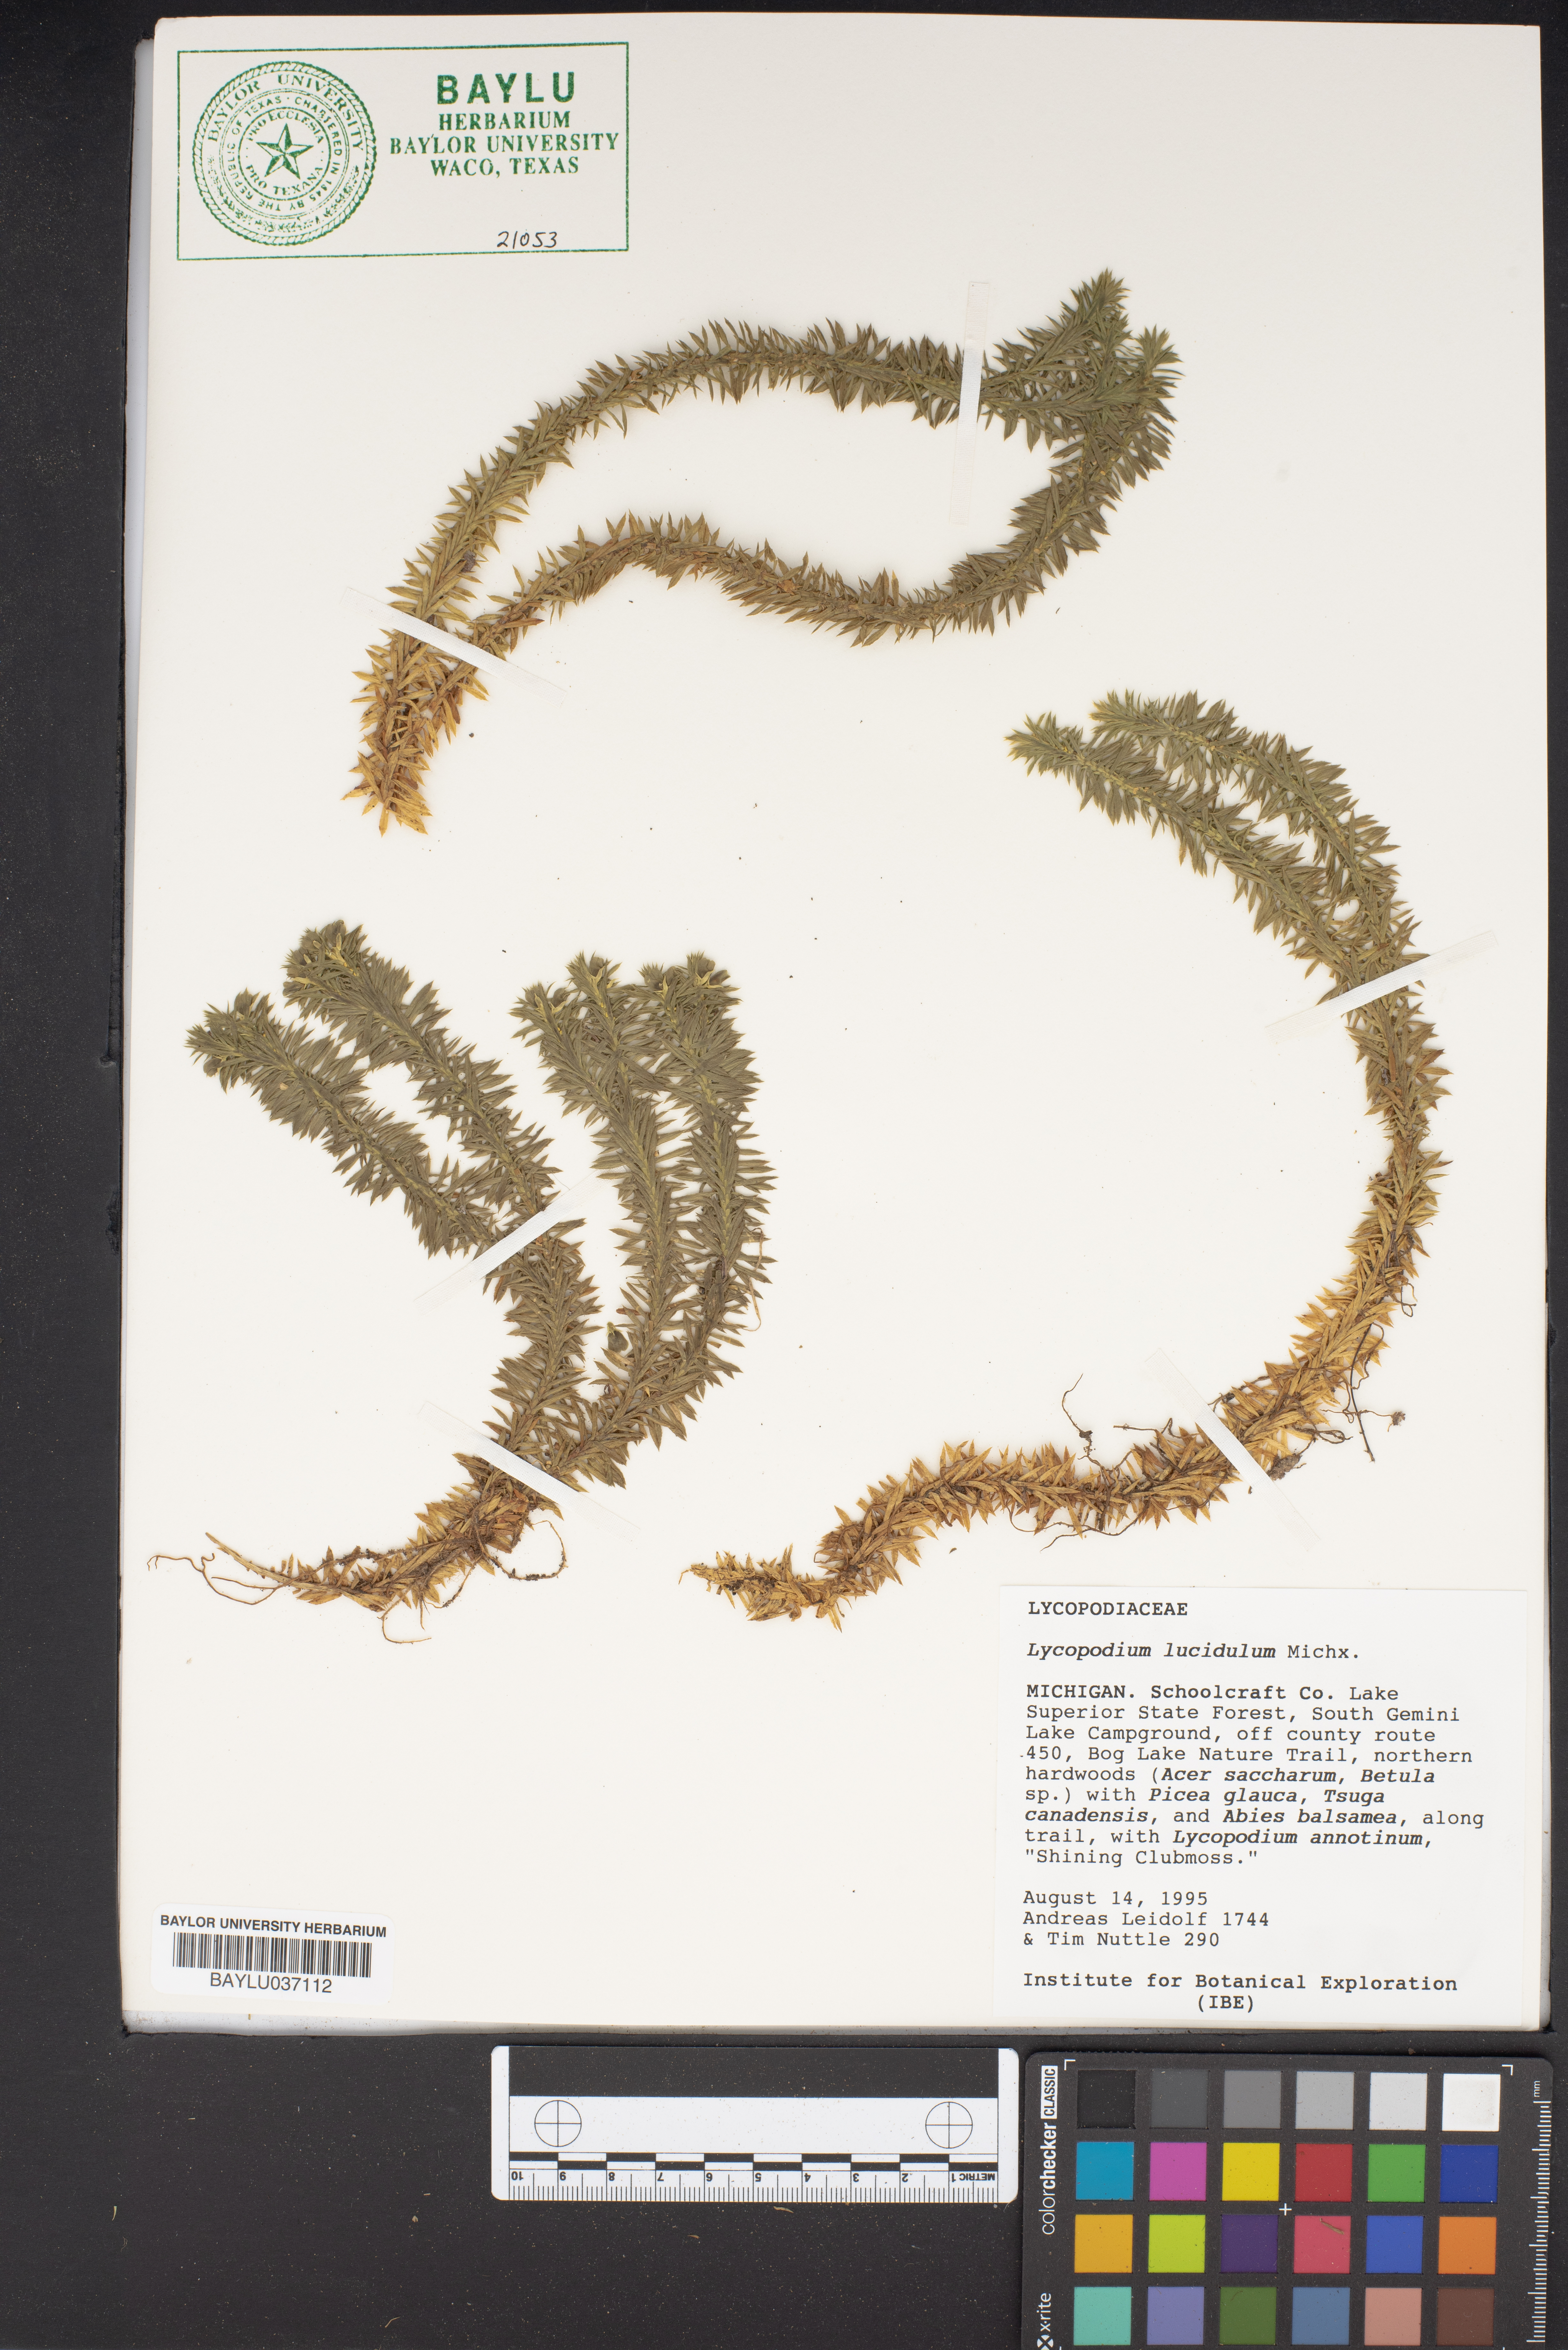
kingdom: Plantae
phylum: Tracheophyta
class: Lycopodiopsida
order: Lycopodiales
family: Lycopodiaceae
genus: Huperzia
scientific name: Huperzia lucidula
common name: Shining clubmoss
